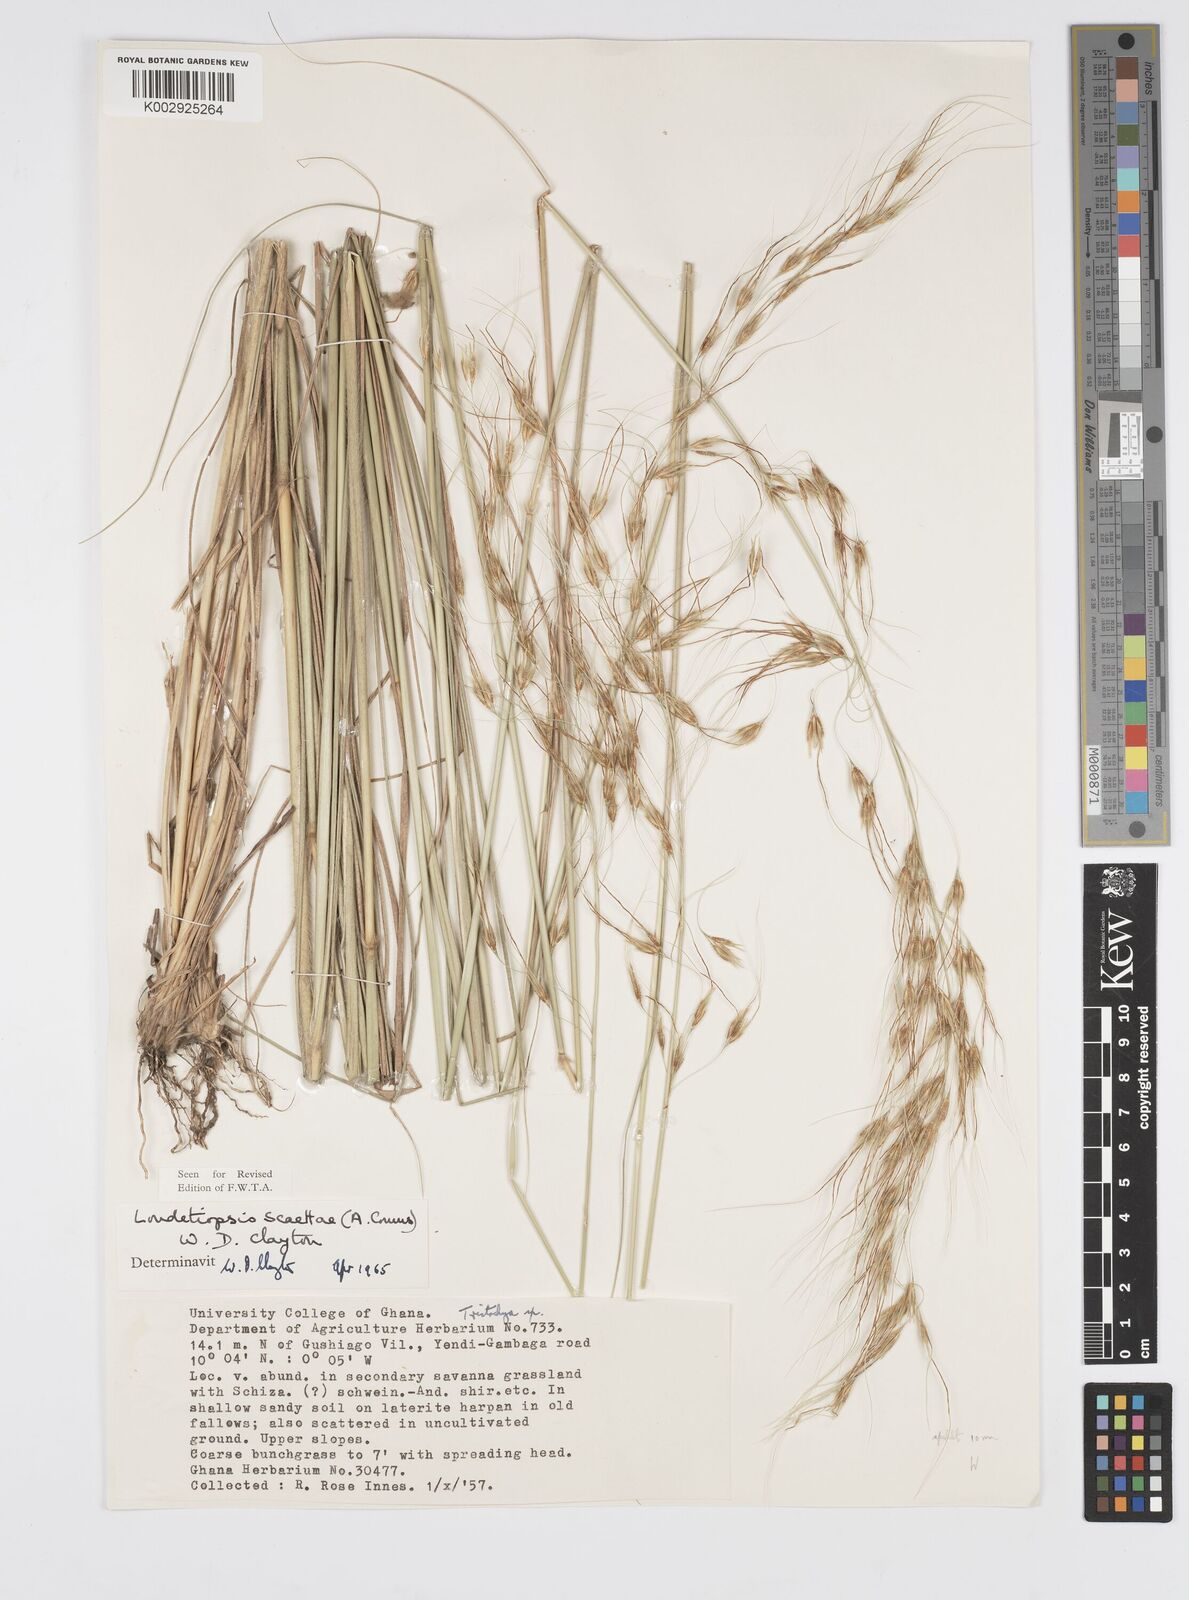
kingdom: Plantae
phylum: Tracheophyta
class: Liliopsida
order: Poales
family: Poaceae
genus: Loudetiopsis
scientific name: Loudetiopsis scaettae
